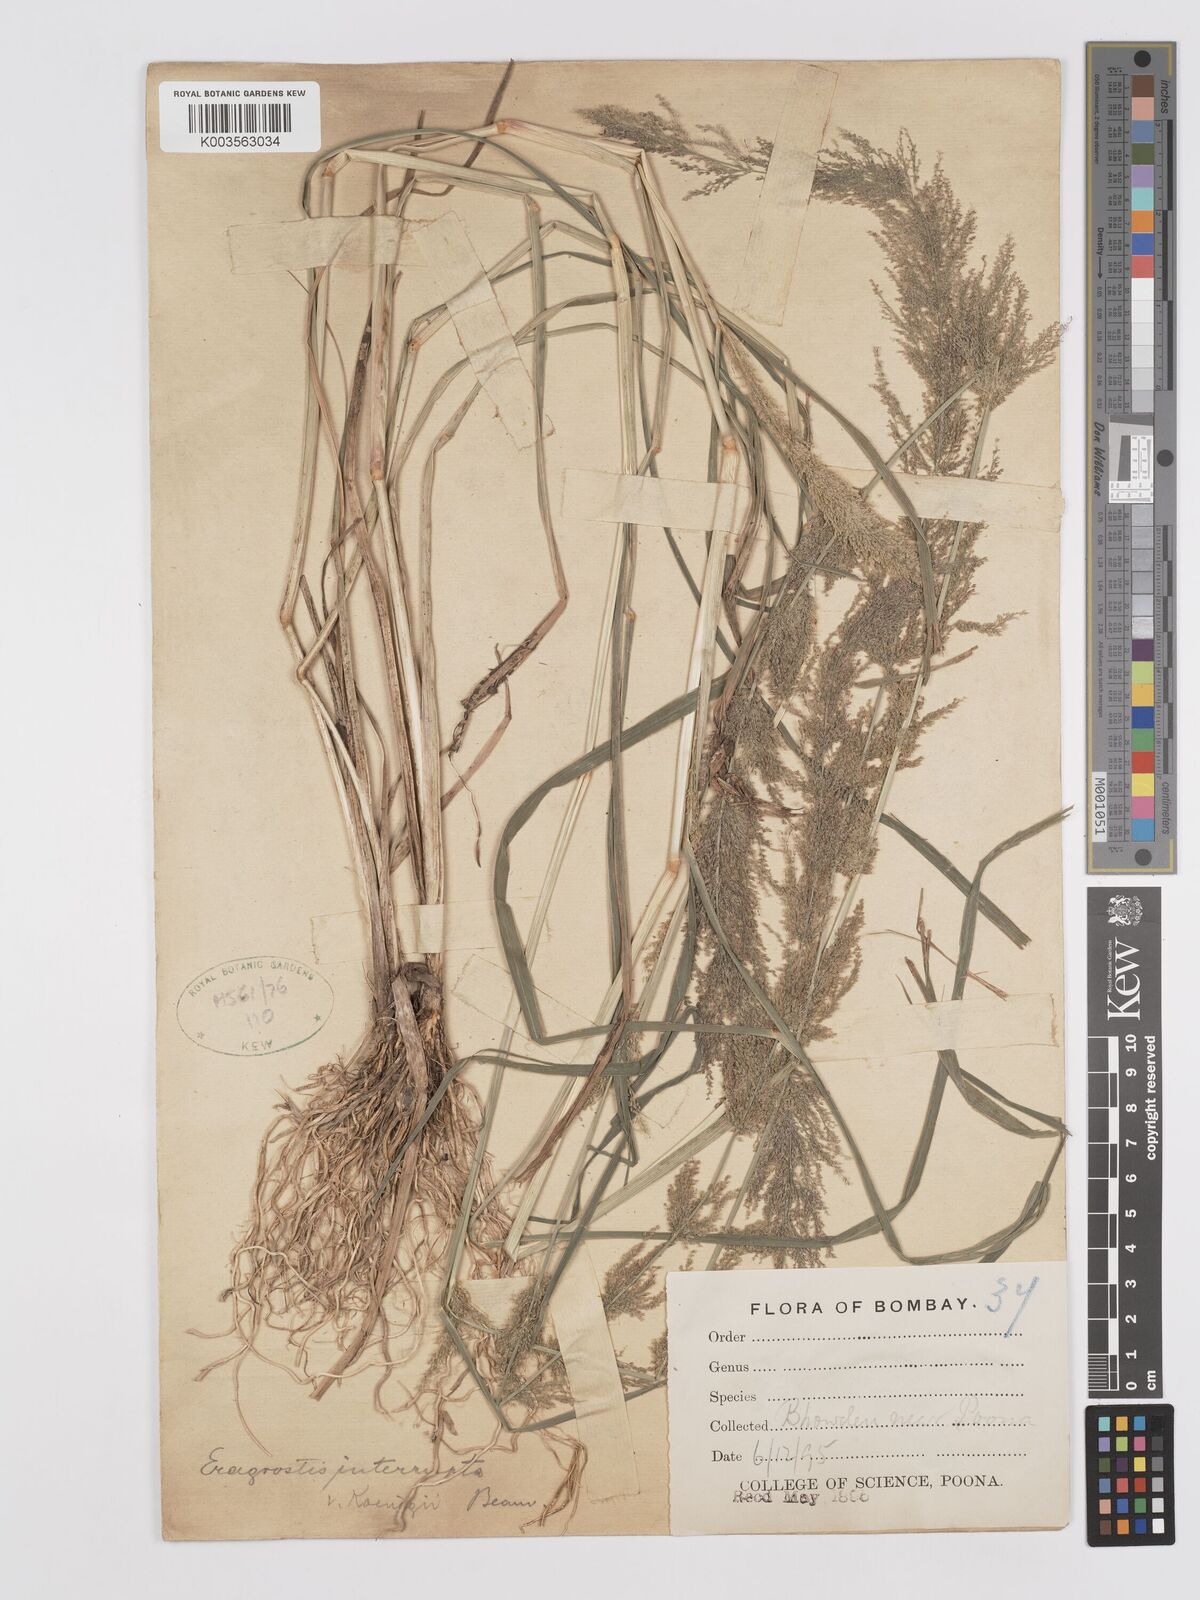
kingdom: Plantae
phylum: Tracheophyta
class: Liliopsida
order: Poales
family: Poaceae
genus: Eragrostis
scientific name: Eragrostis japonica
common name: Pond lovegrass
